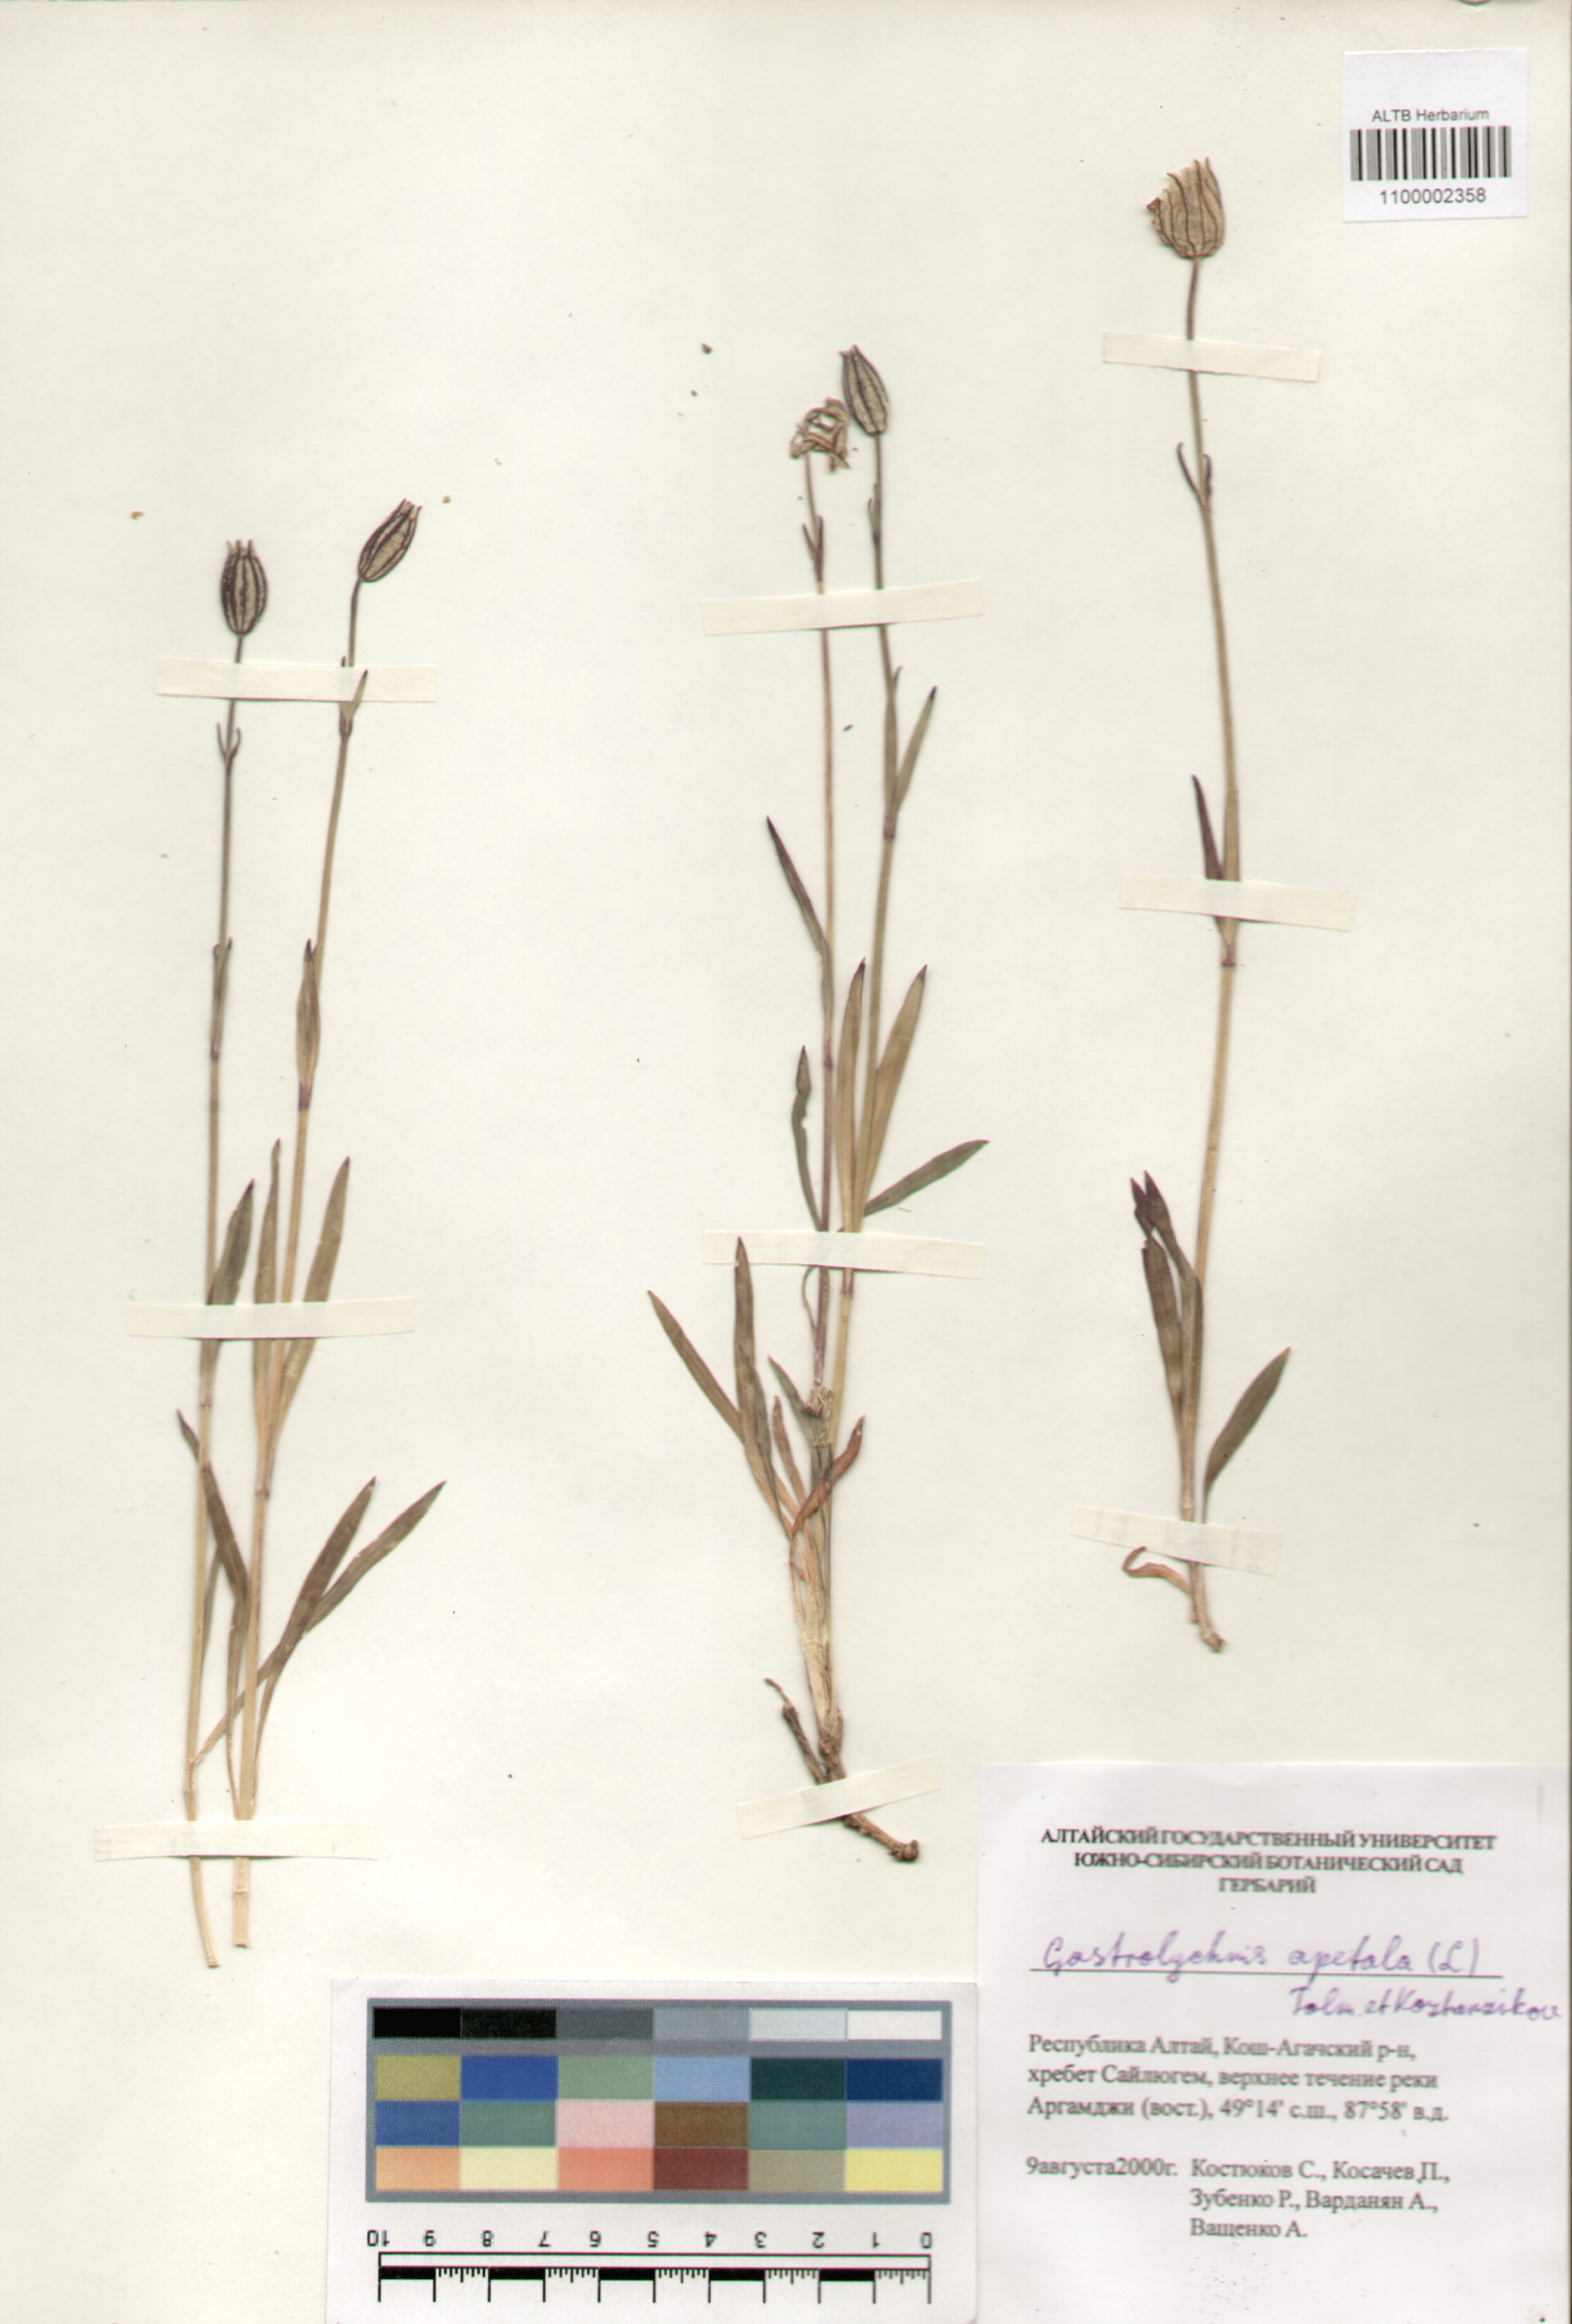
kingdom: Plantae
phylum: Tracheophyta
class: Magnoliopsida
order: Caryophyllales
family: Caryophyllaceae
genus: Silene
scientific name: Silene wahlbergella
